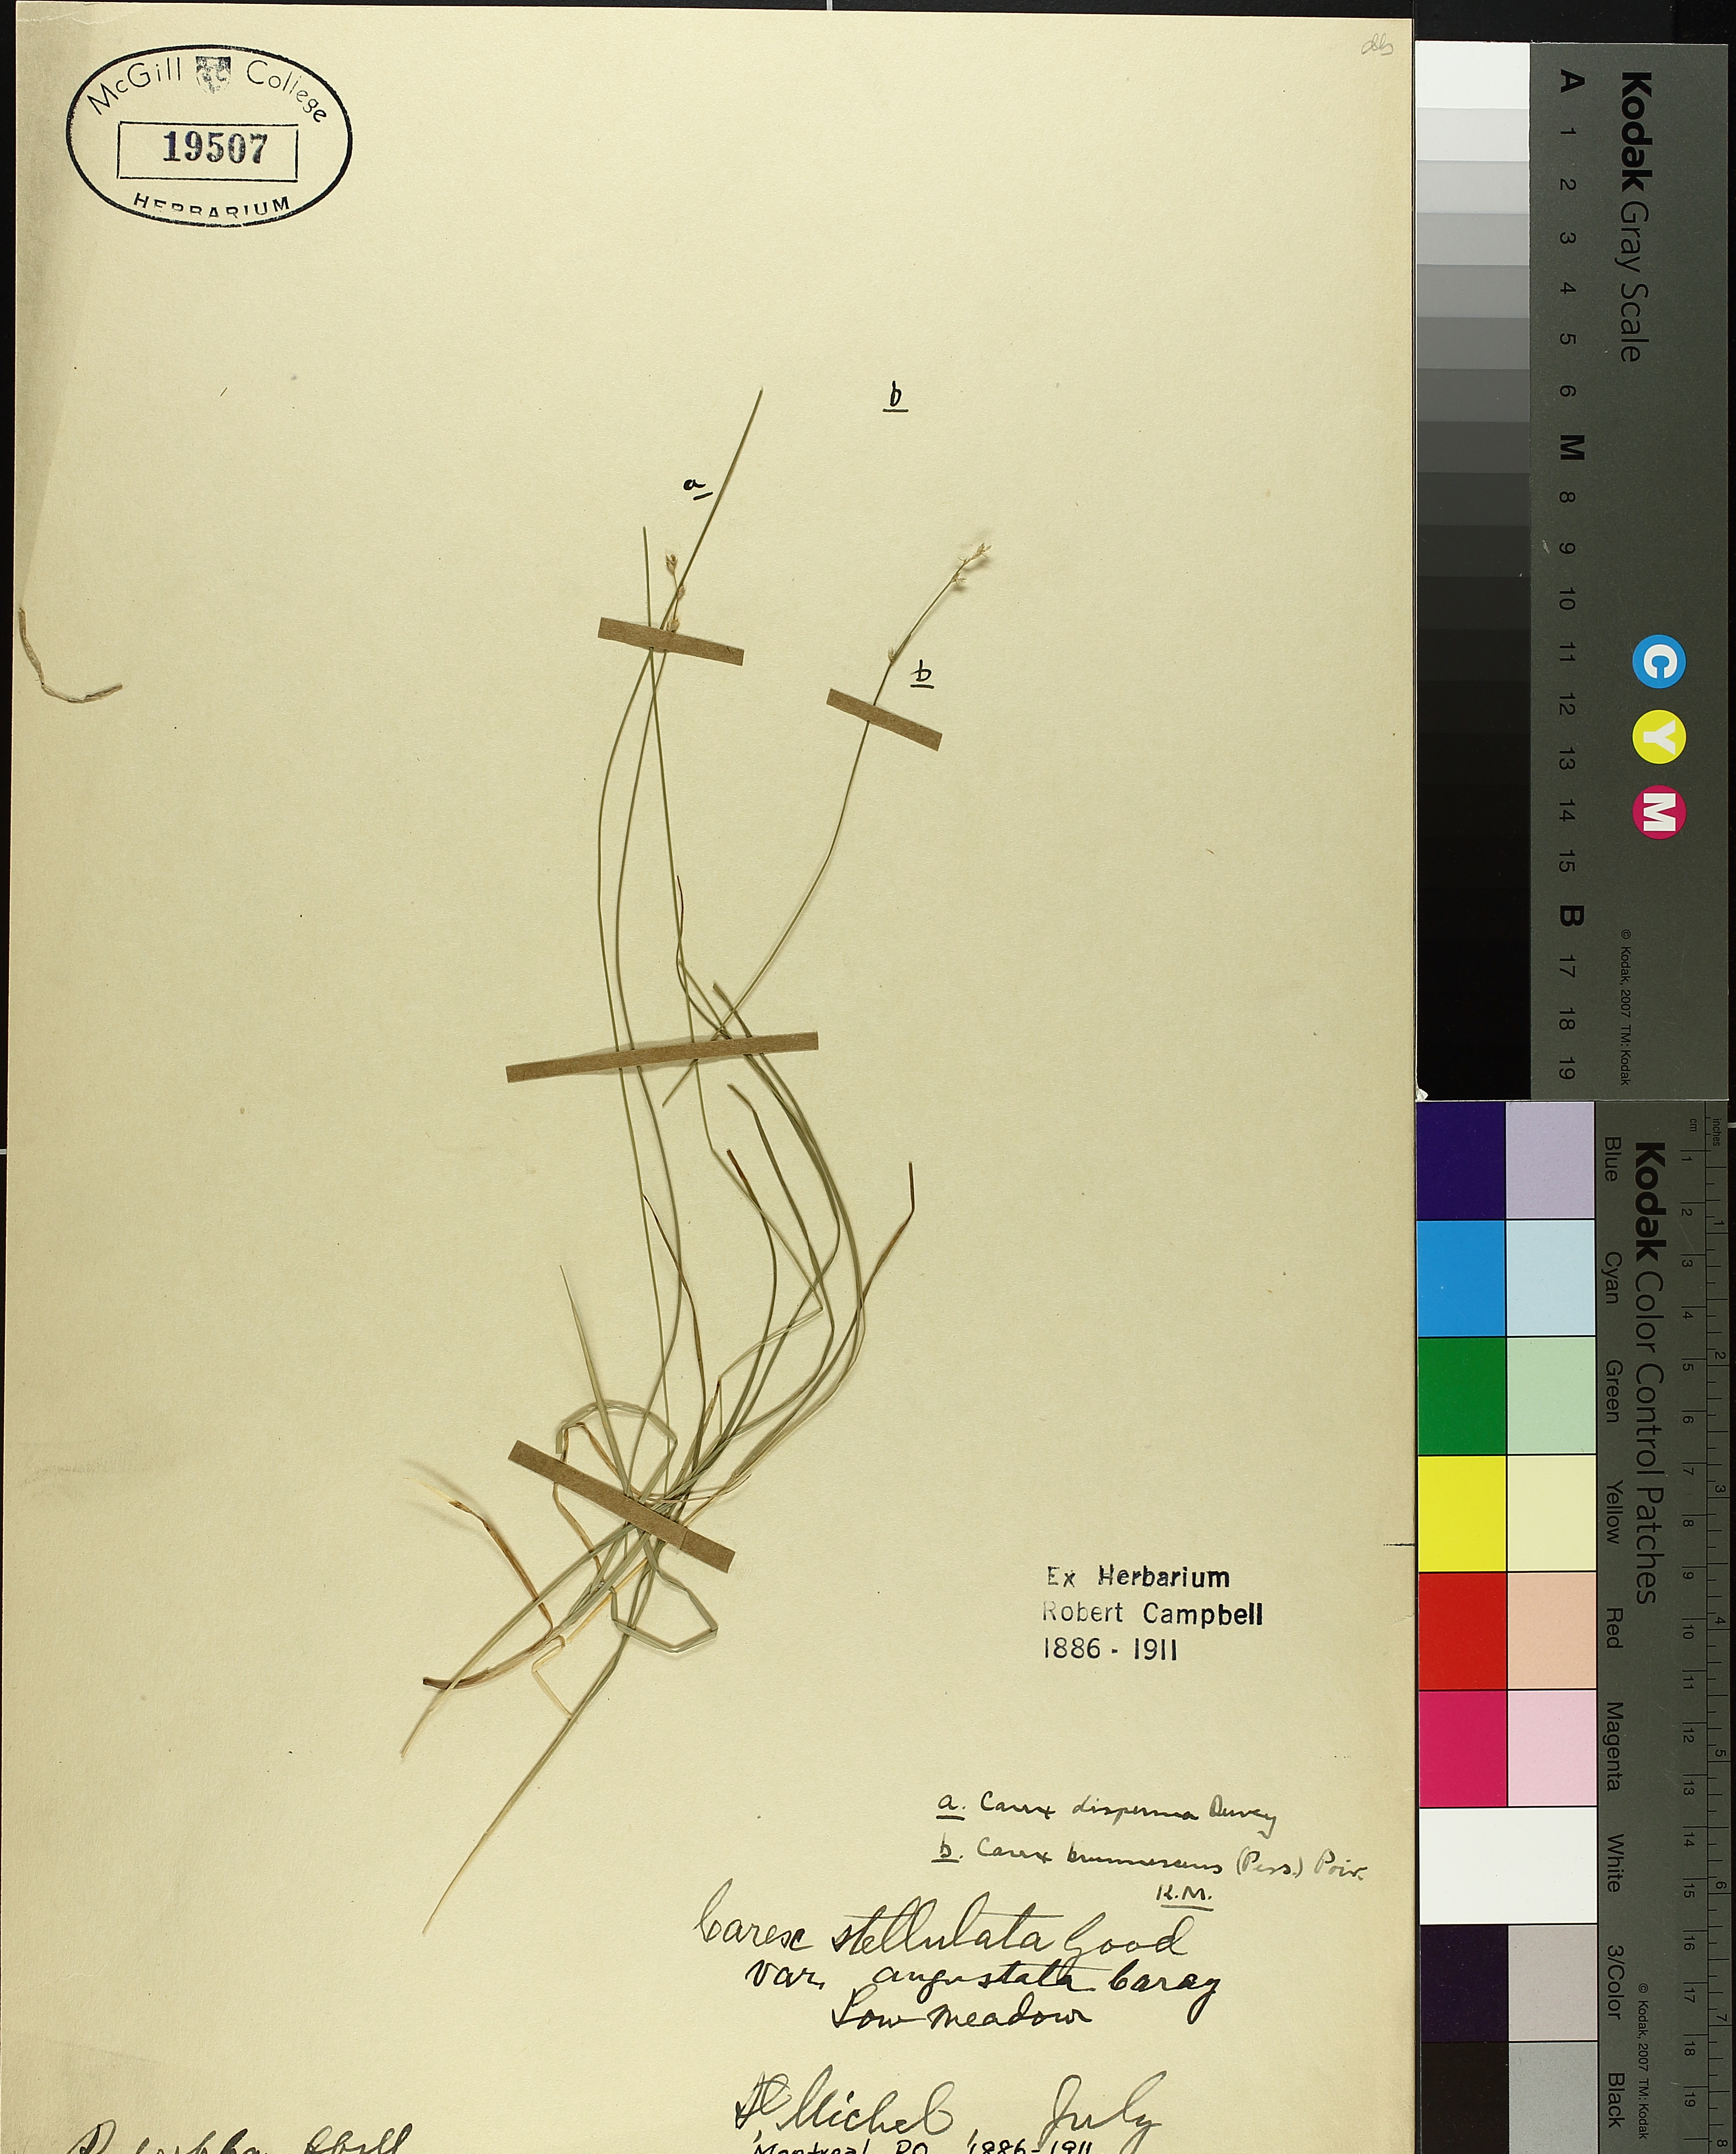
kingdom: Plantae
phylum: Tracheophyta
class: Liliopsida
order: Poales
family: Cyperaceae
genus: Carex
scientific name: Carex brunnescens
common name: Brown sedge
